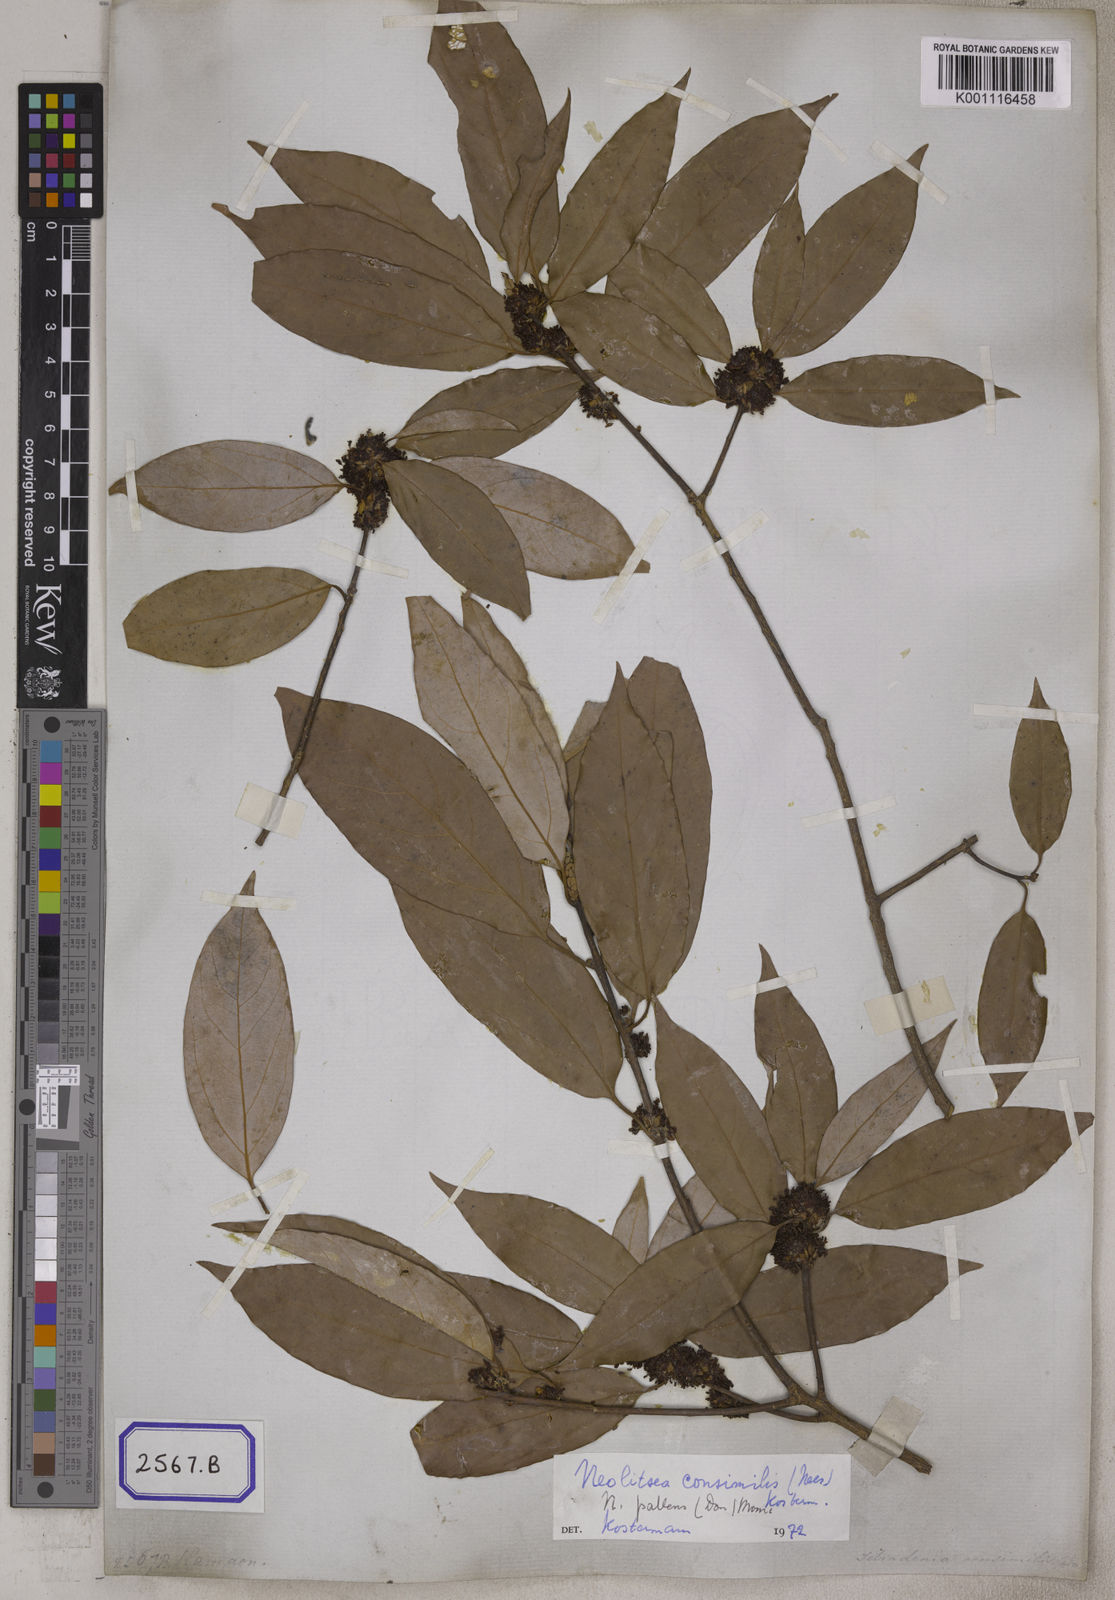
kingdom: Plantae
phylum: Tracheophyta
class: Magnoliopsida
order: Laurales
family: Lauraceae
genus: Lindera
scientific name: Lindera pulcherrima
